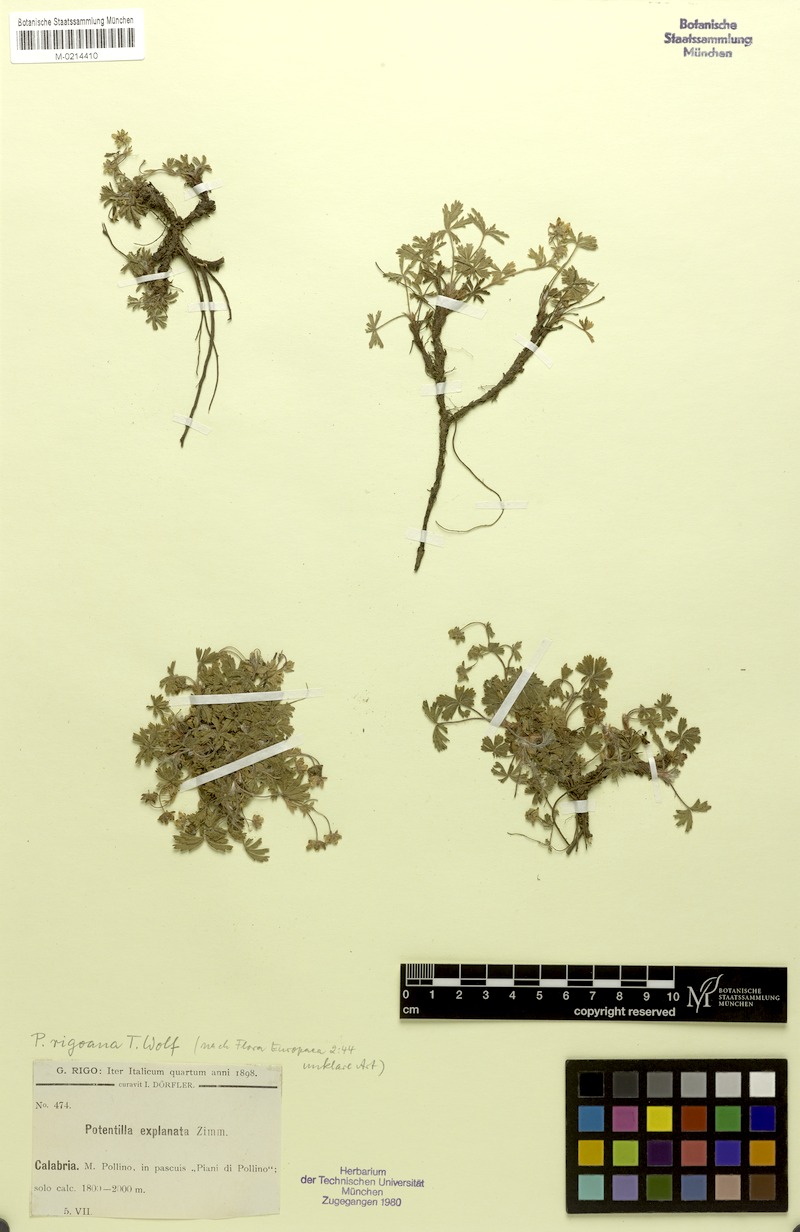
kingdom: Plantae
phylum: Tracheophyta
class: Magnoliopsida
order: Rosales
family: Rosaceae
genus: Potentilla
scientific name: Potentilla rigoana
